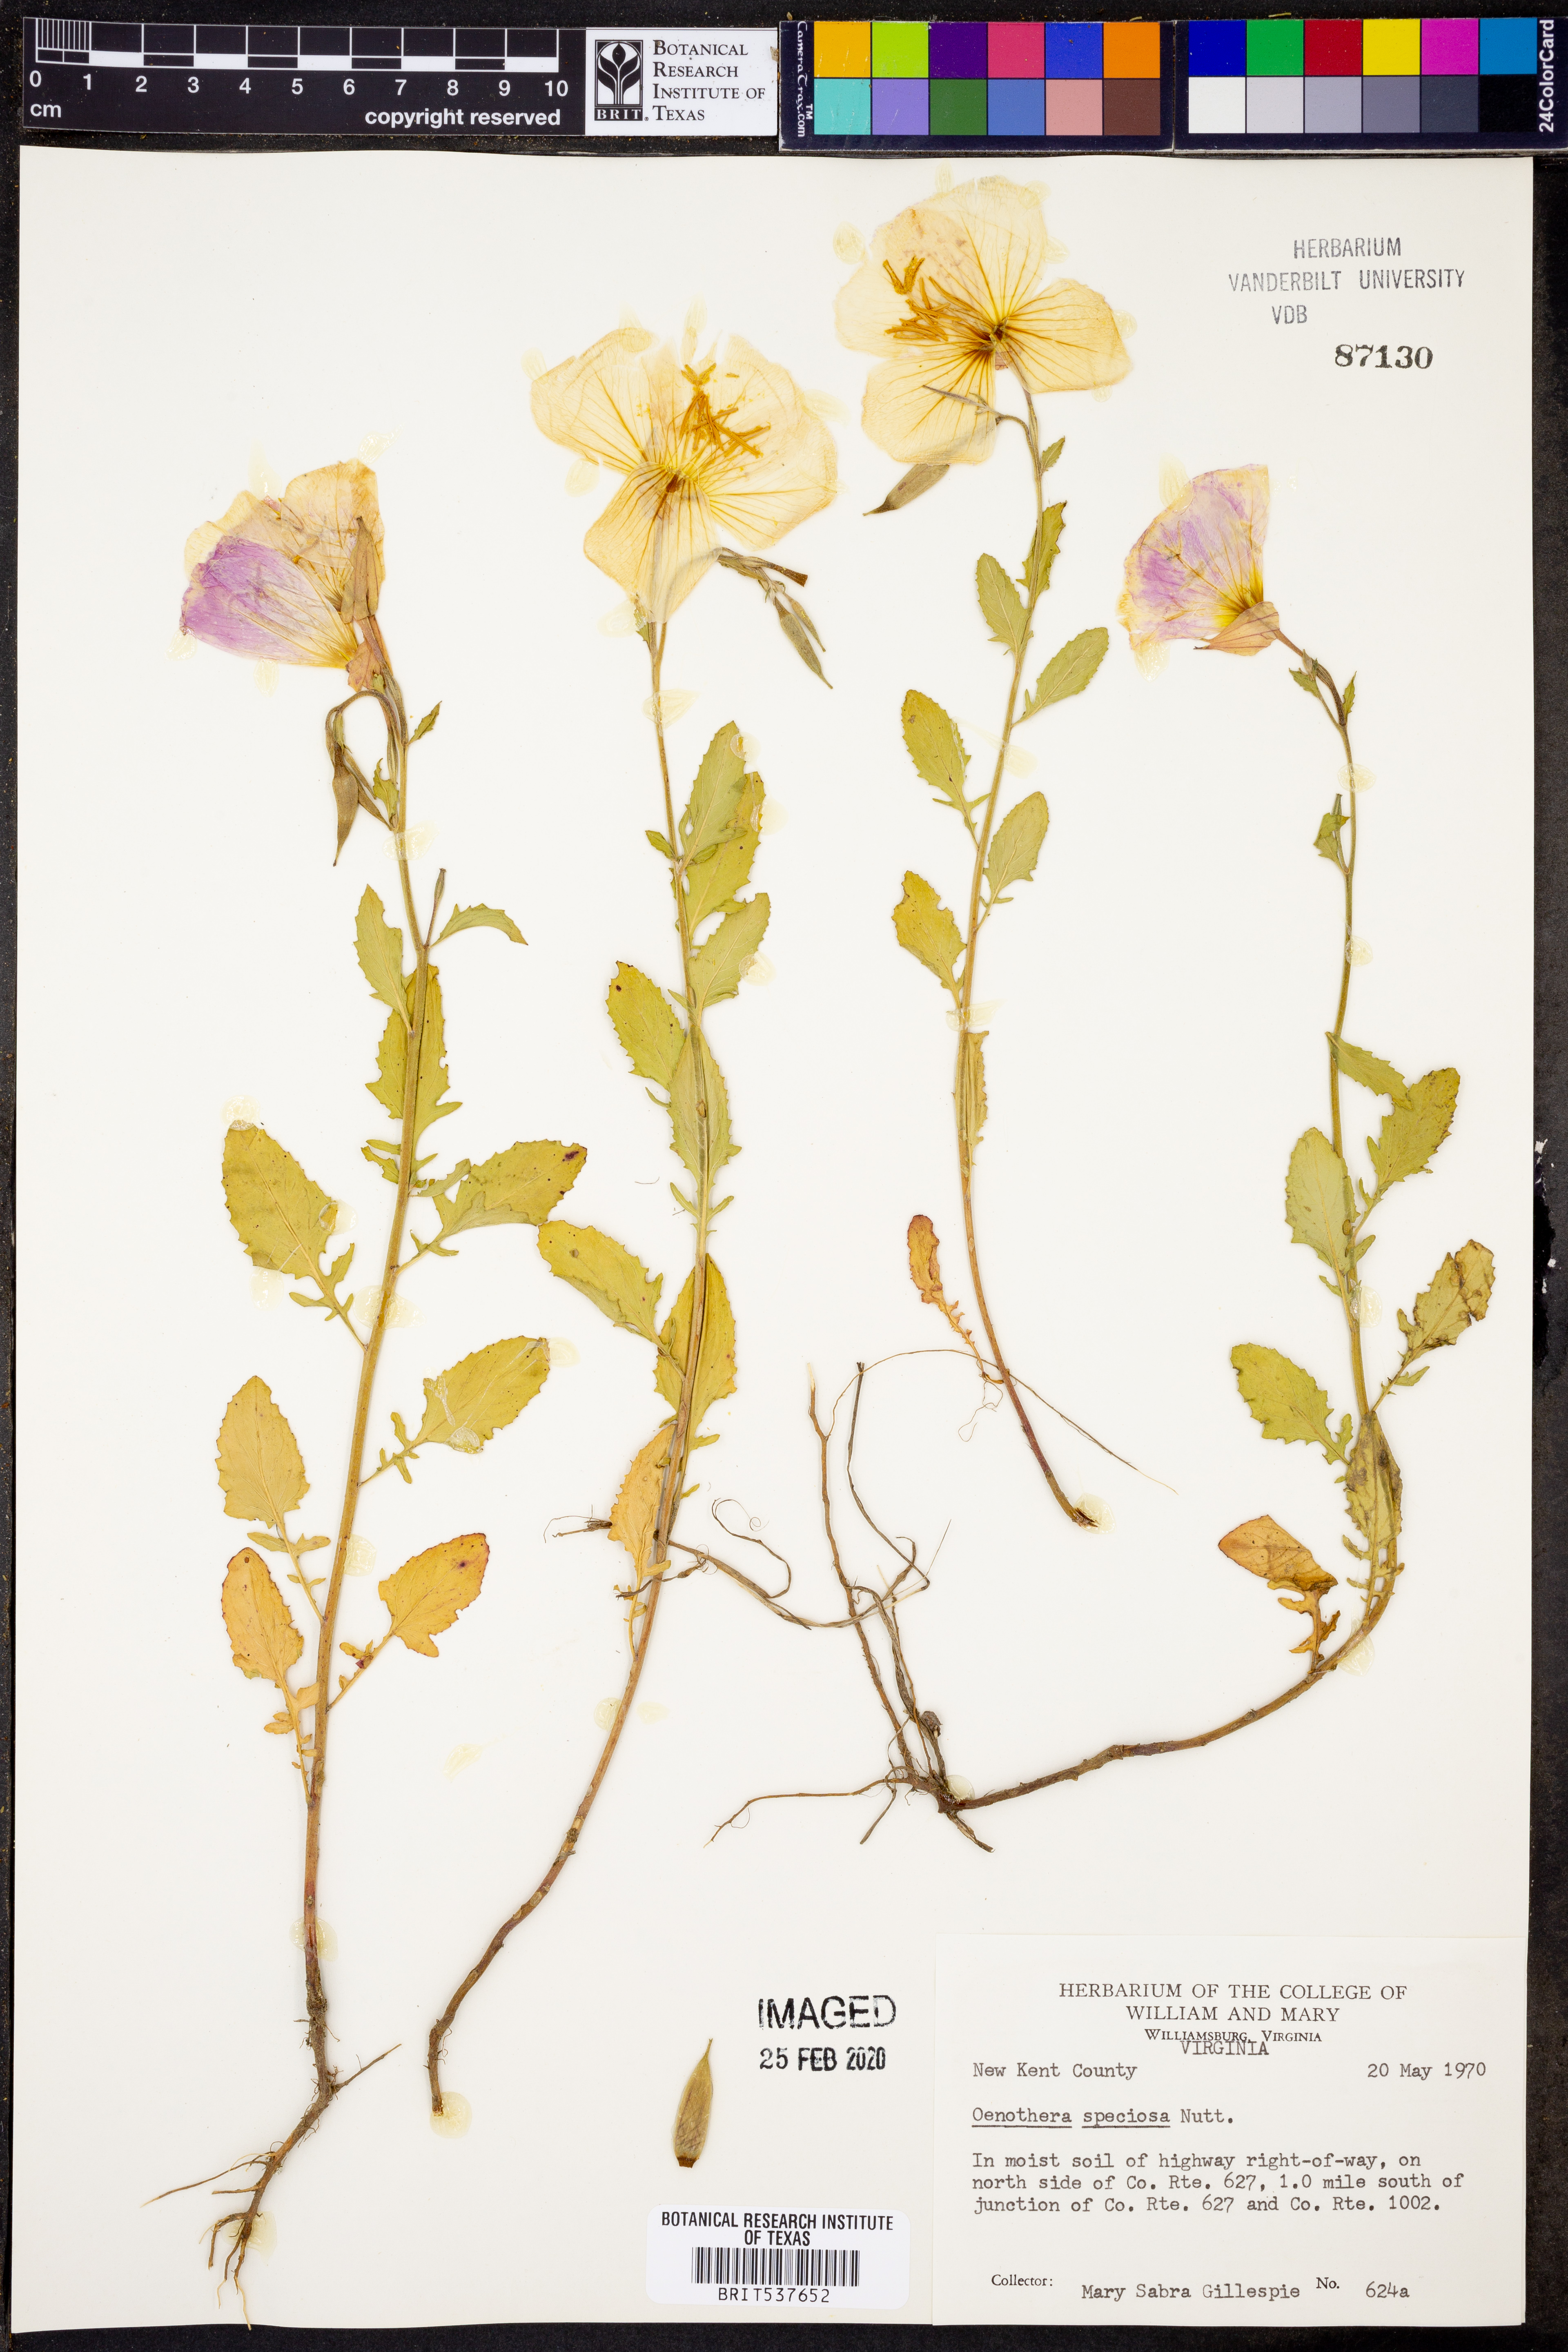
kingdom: Plantae
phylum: Tracheophyta
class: Magnoliopsida
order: Myrtales
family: Onagraceae
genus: Oenothera
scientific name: Oenothera speciosa
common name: White evening-primrose
